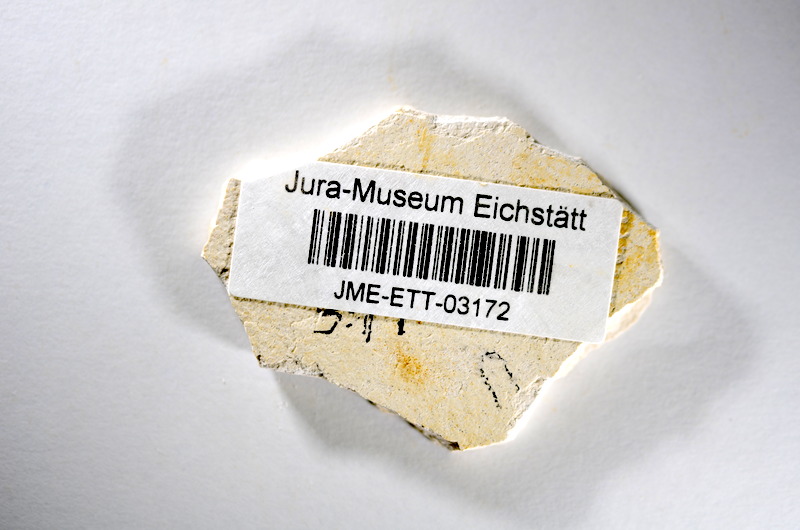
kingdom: Animalia
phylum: Chordata
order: Salmoniformes
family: Orthogonikleithridae
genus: Orthogonikleithrus
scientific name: Orthogonikleithrus hoelli
